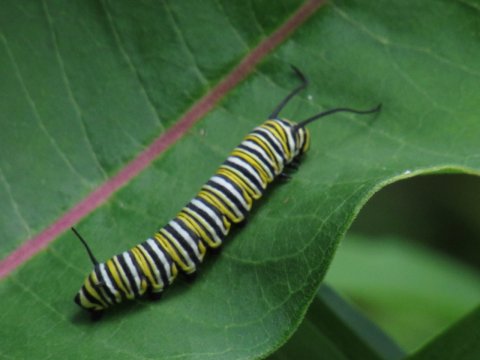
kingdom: Animalia
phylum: Arthropoda
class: Insecta
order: Lepidoptera
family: Nymphalidae
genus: Danaus
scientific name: Danaus plexippus
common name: Monarch
